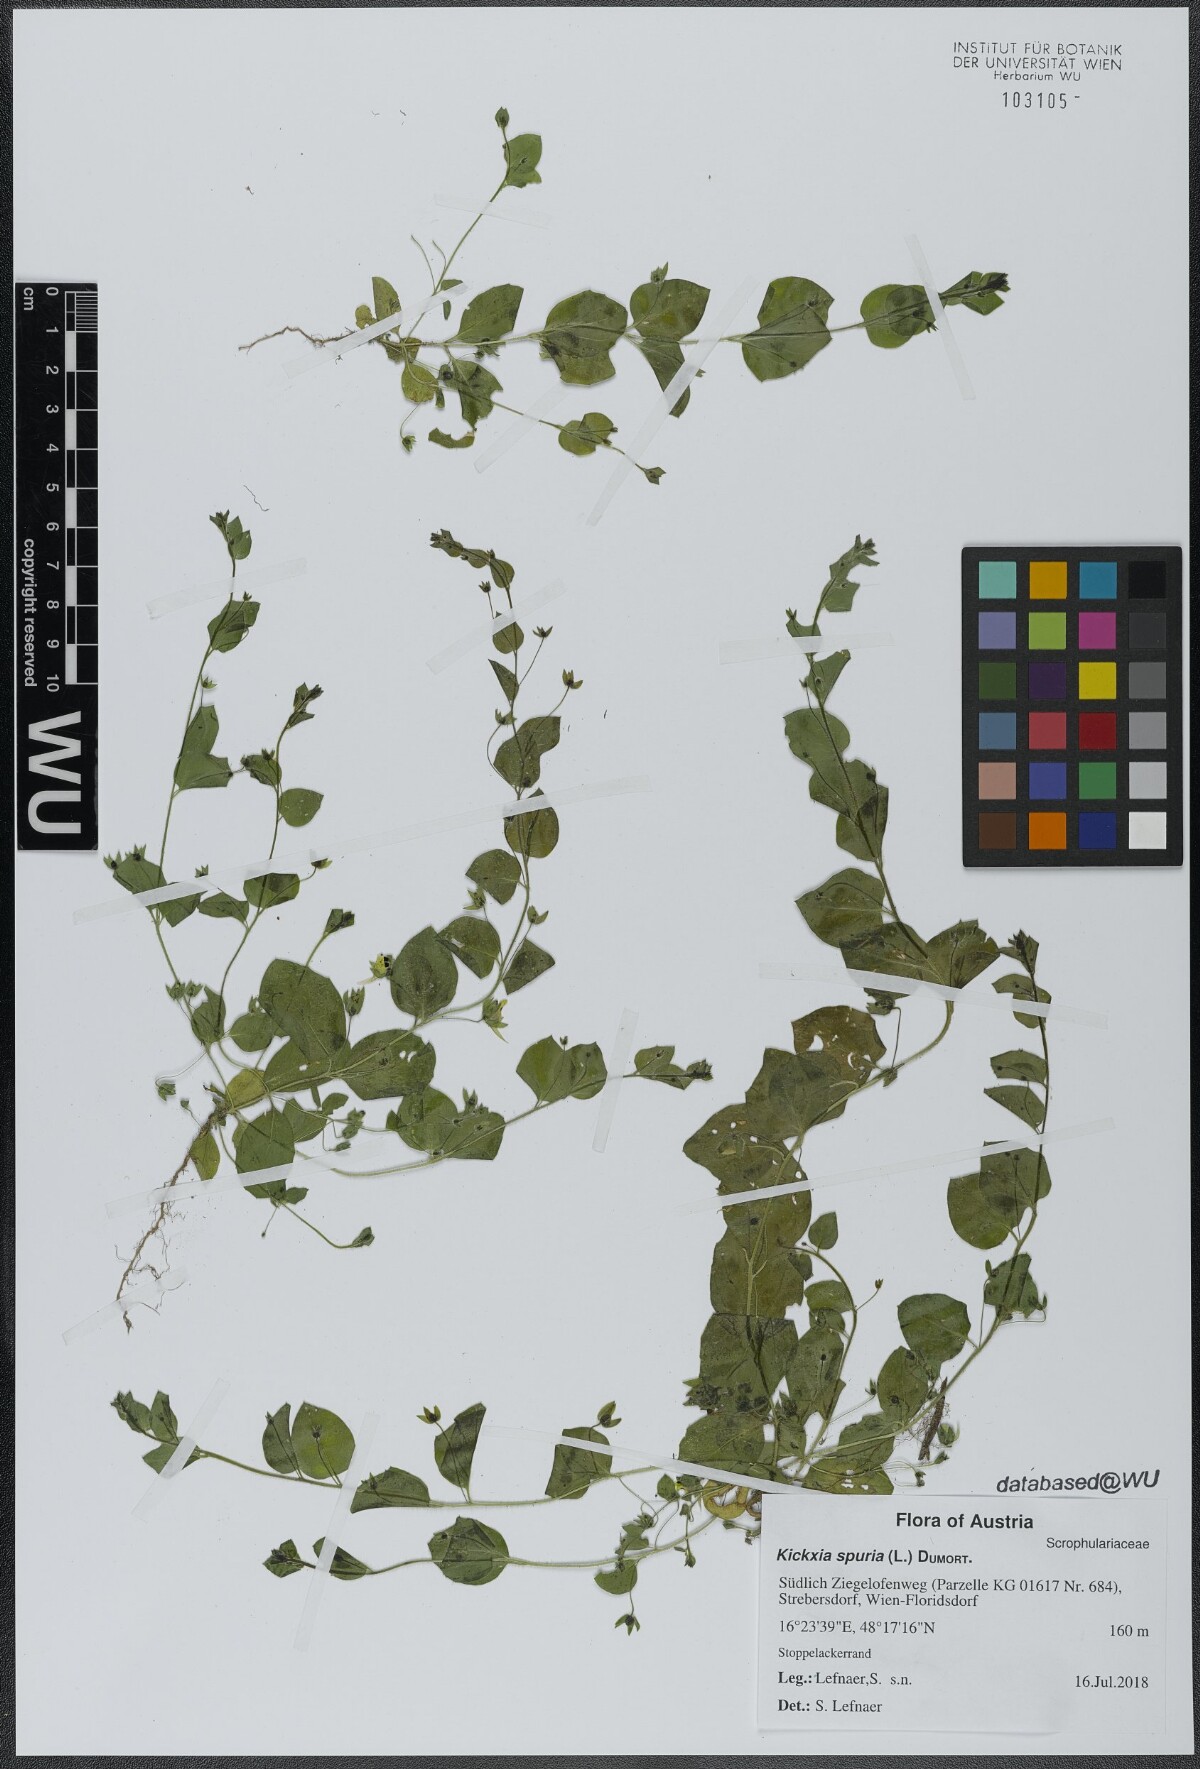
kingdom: Plantae
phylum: Tracheophyta
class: Magnoliopsida
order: Lamiales
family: Plantaginaceae
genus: Kickxia
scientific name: Kickxia spuria
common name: Round-leaved fluellen
